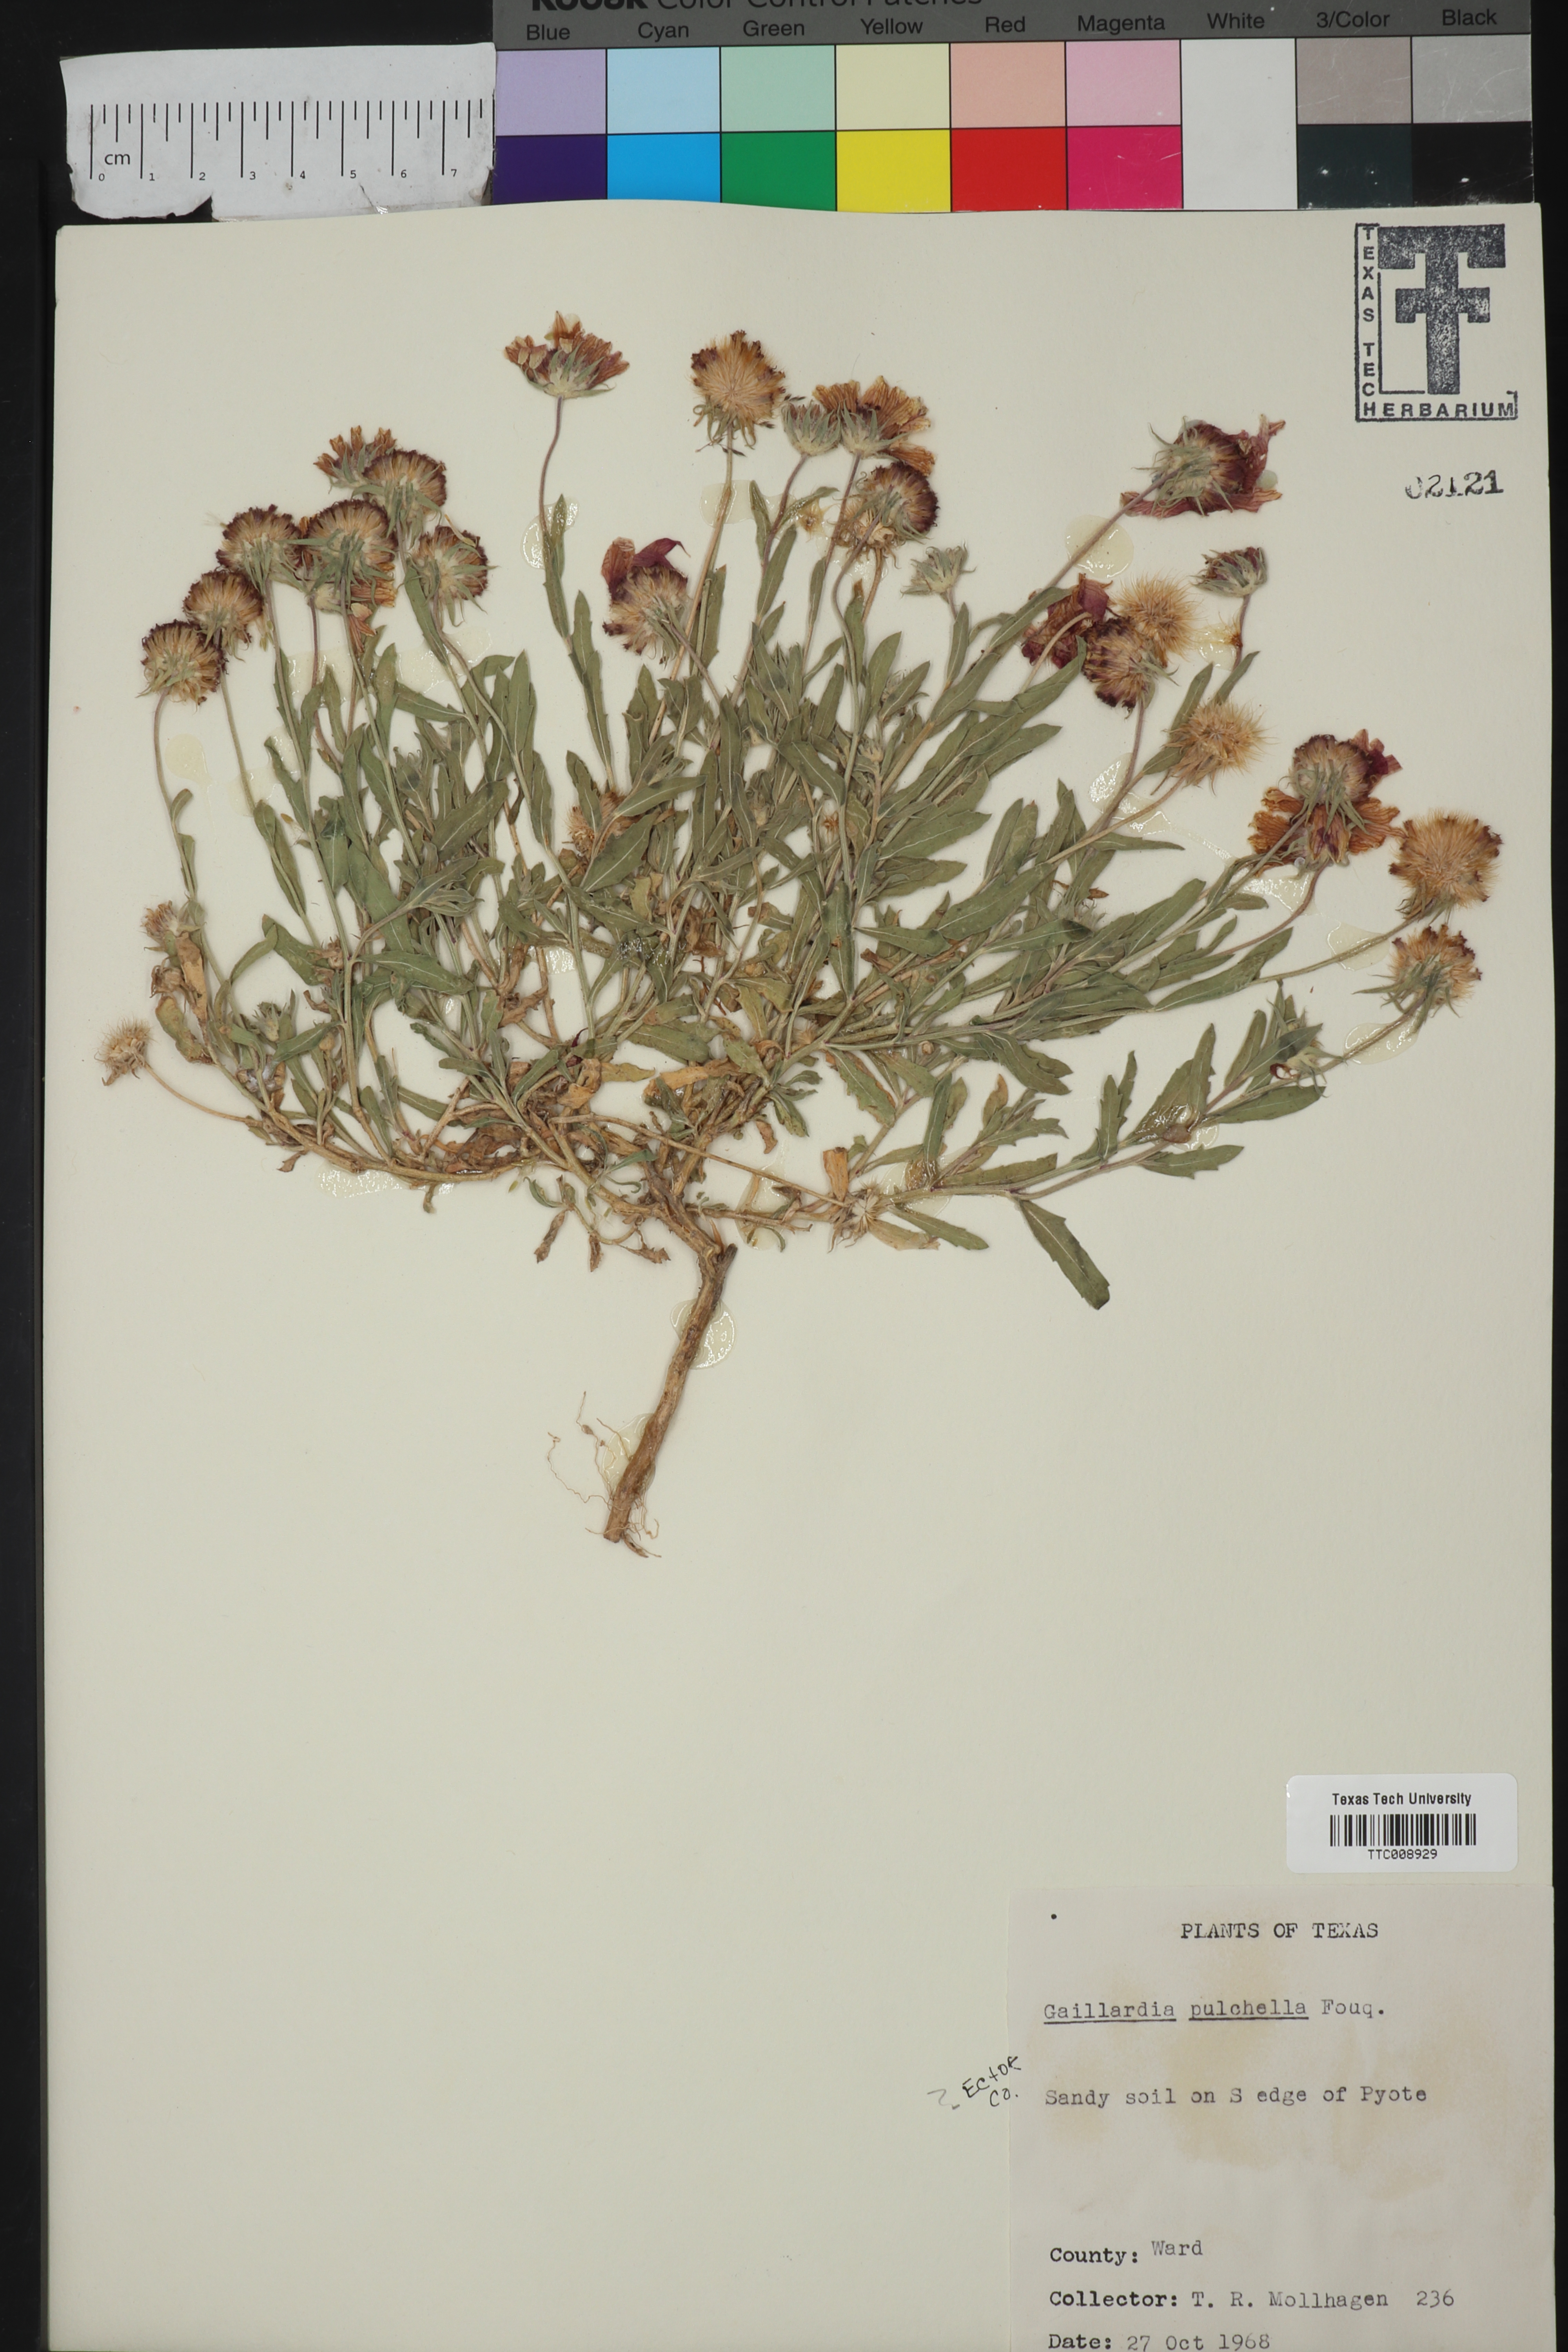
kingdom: Plantae
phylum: Tracheophyta
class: Magnoliopsida
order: Asterales
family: Asteraceae
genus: Gaillardia
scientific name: Gaillardia pulchella
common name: Firewheel
